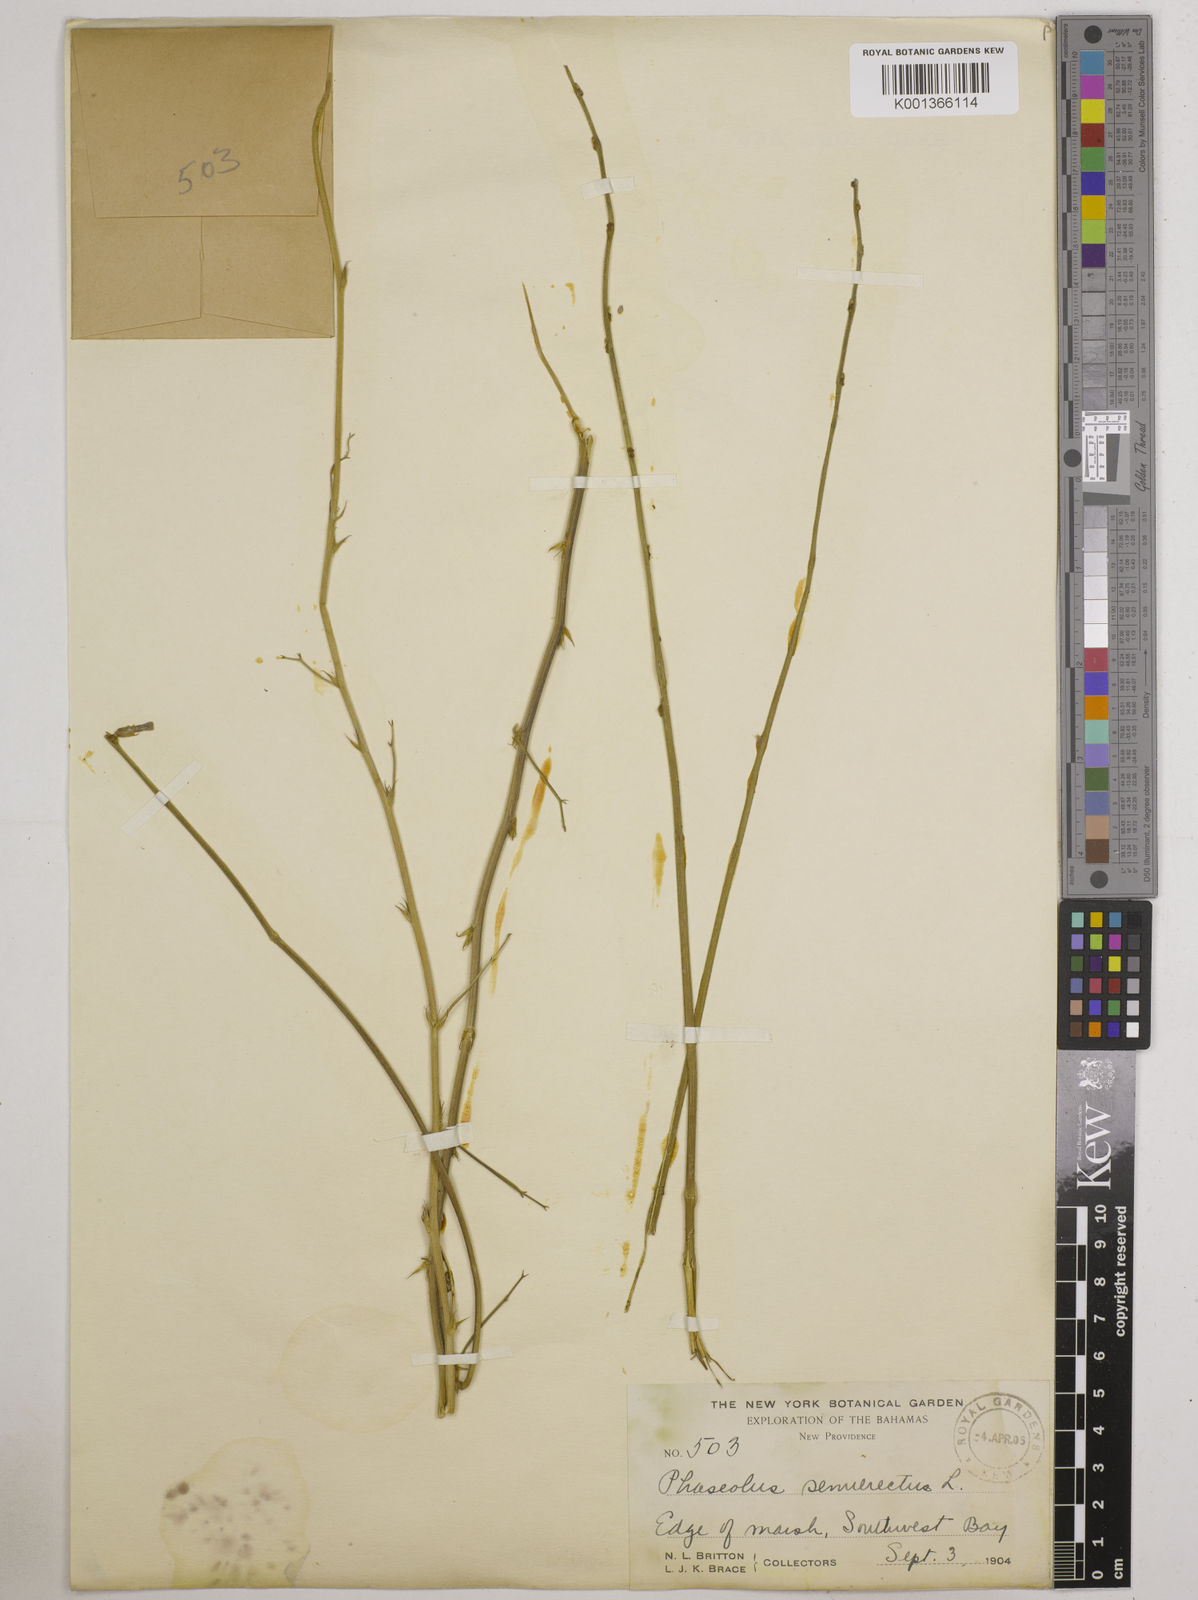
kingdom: Plantae
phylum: Tracheophyta
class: Magnoliopsida
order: Fabales
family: Fabaceae
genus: Macroptilium
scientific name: Macroptilium lathyroides
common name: Wild bushbean
